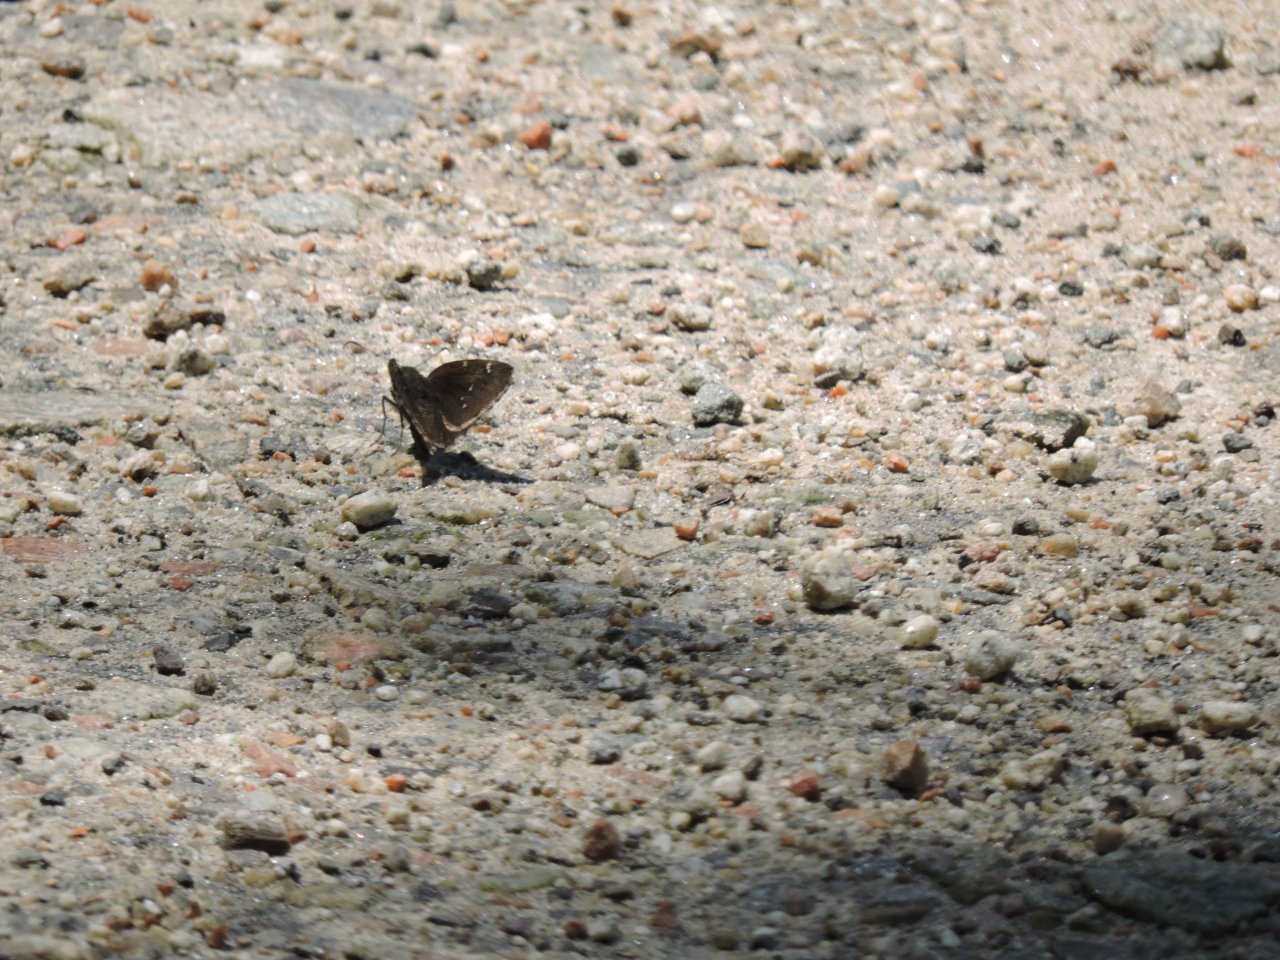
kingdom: Animalia
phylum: Arthropoda
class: Insecta
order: Lepidoptera
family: Hesperiidae
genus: Autochton
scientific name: Autochton
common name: Northern Cloudywing
